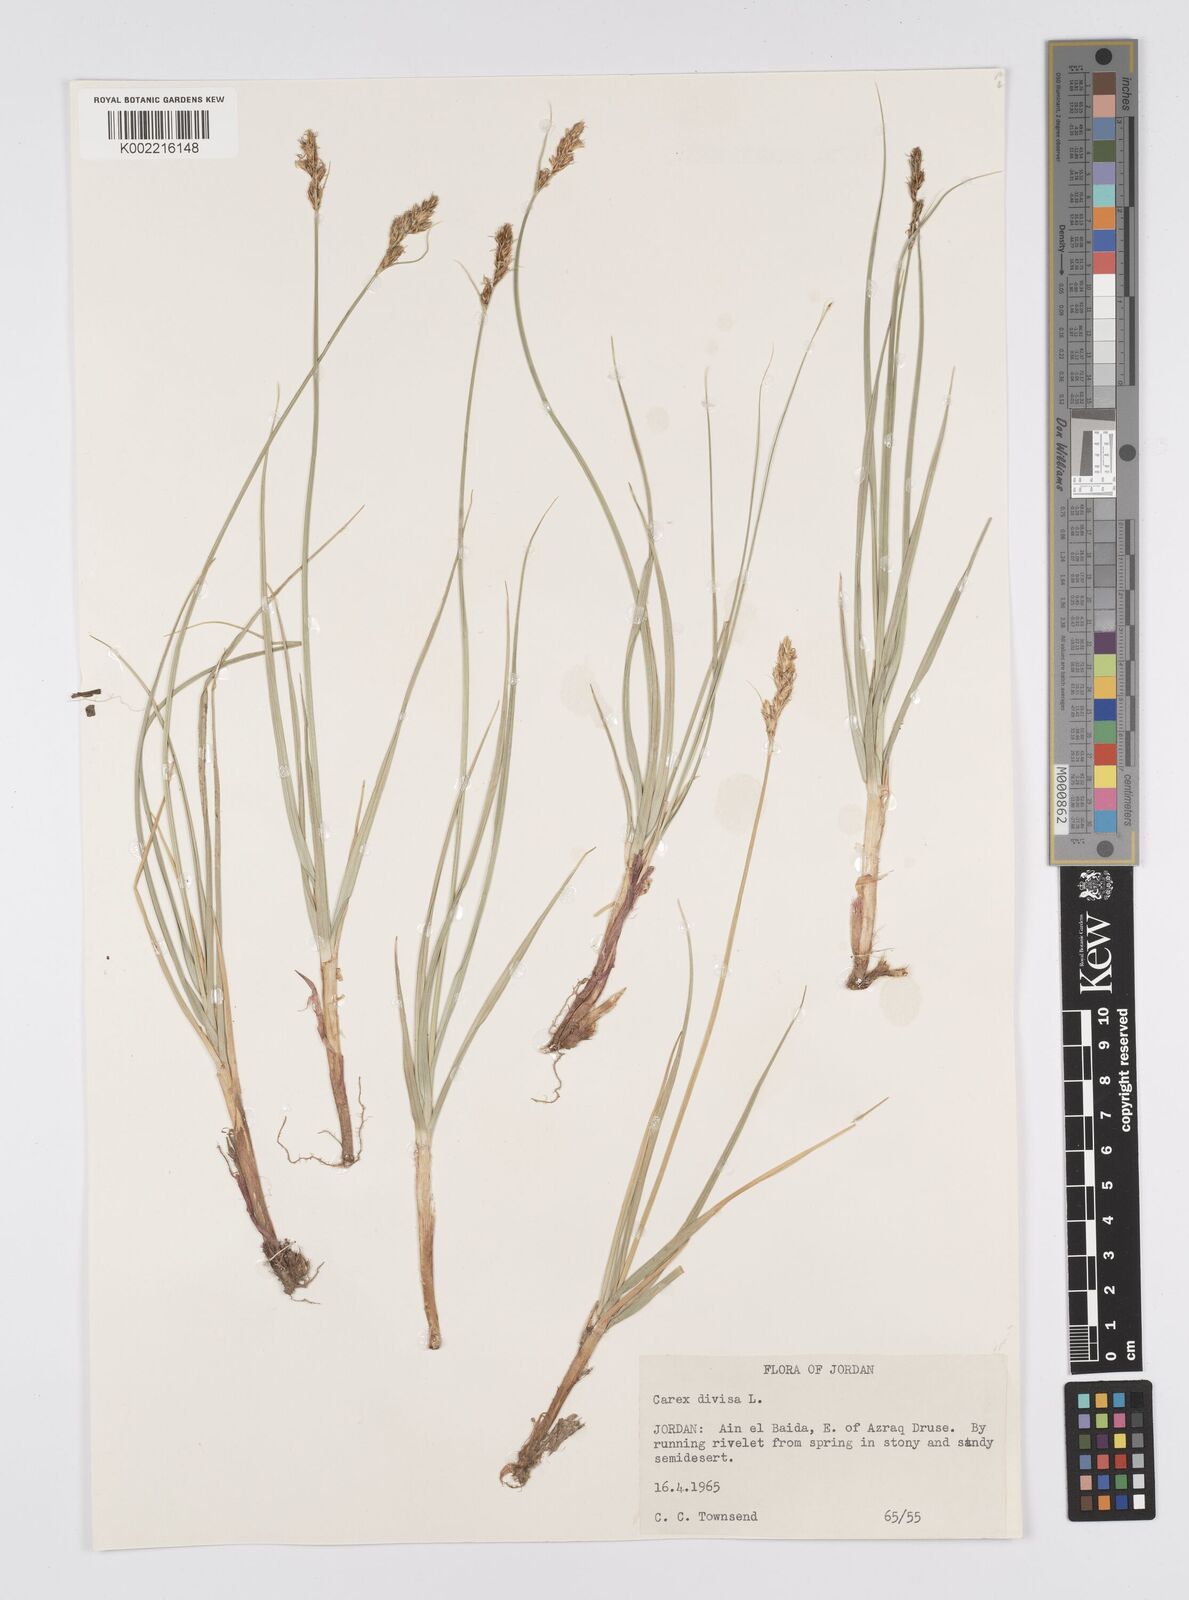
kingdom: Plantae
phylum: Tracheophyta
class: Liliopsida
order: Poales
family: Cyperaceae
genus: Carex
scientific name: Carex divisa
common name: Divided sedge
